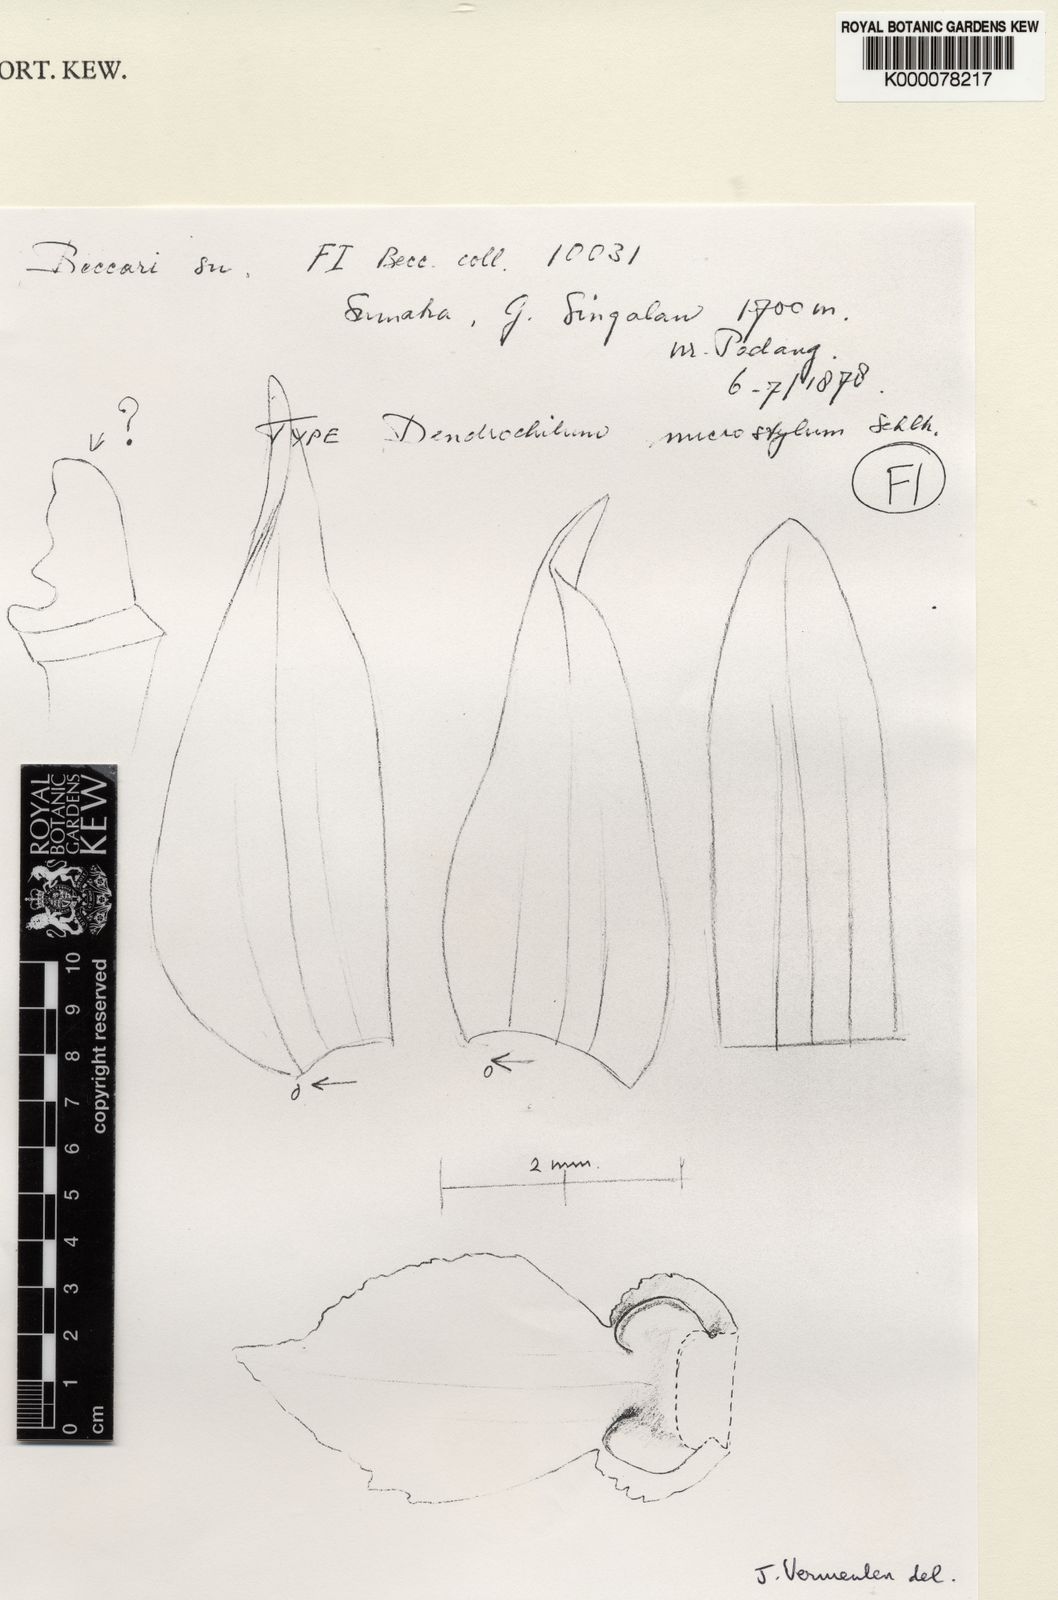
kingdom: Plantae
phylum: Tracheophyta
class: Liliopsida
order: Asparagales
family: Orchidaceae
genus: Coelogyne
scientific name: Coelogyne microstyla
